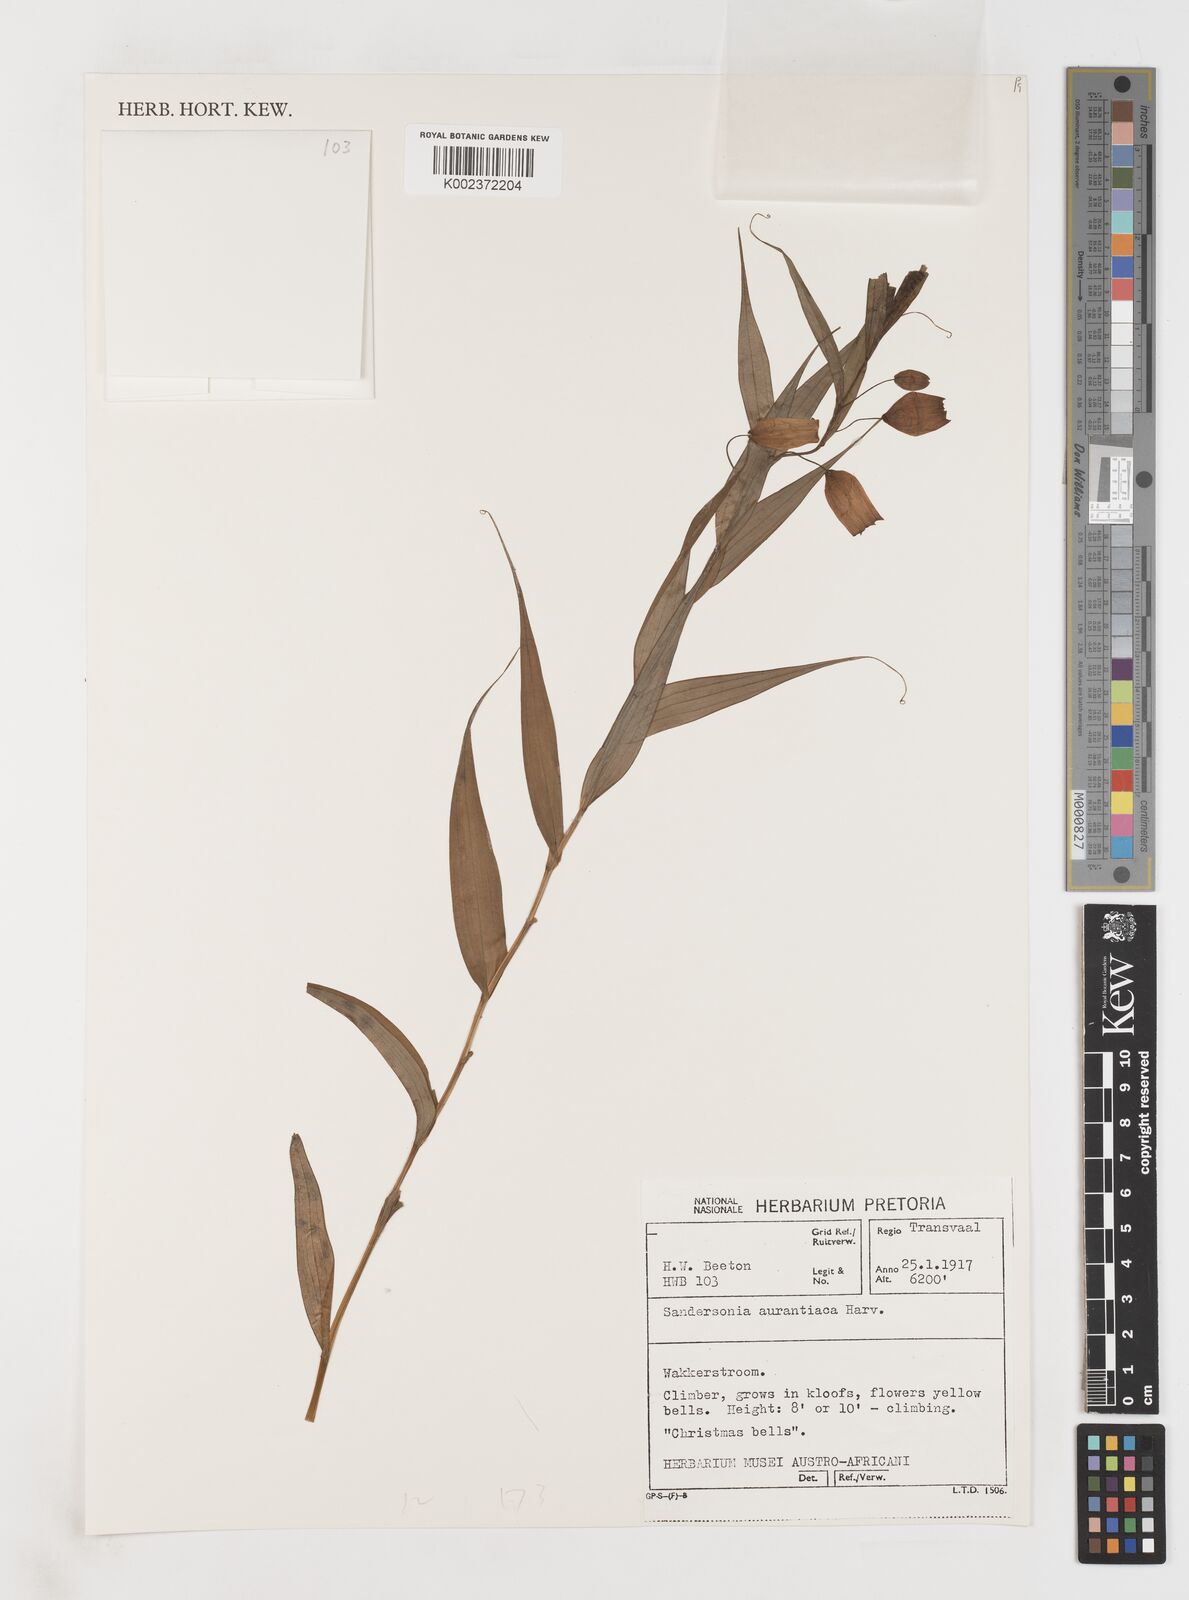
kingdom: Plantae
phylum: Tracheophyta
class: Liliopsida
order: Liliales
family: Colchicaceae
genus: Sandersonia
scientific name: Sandersonia aurantiaca
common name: Chinese-lantern-lily
